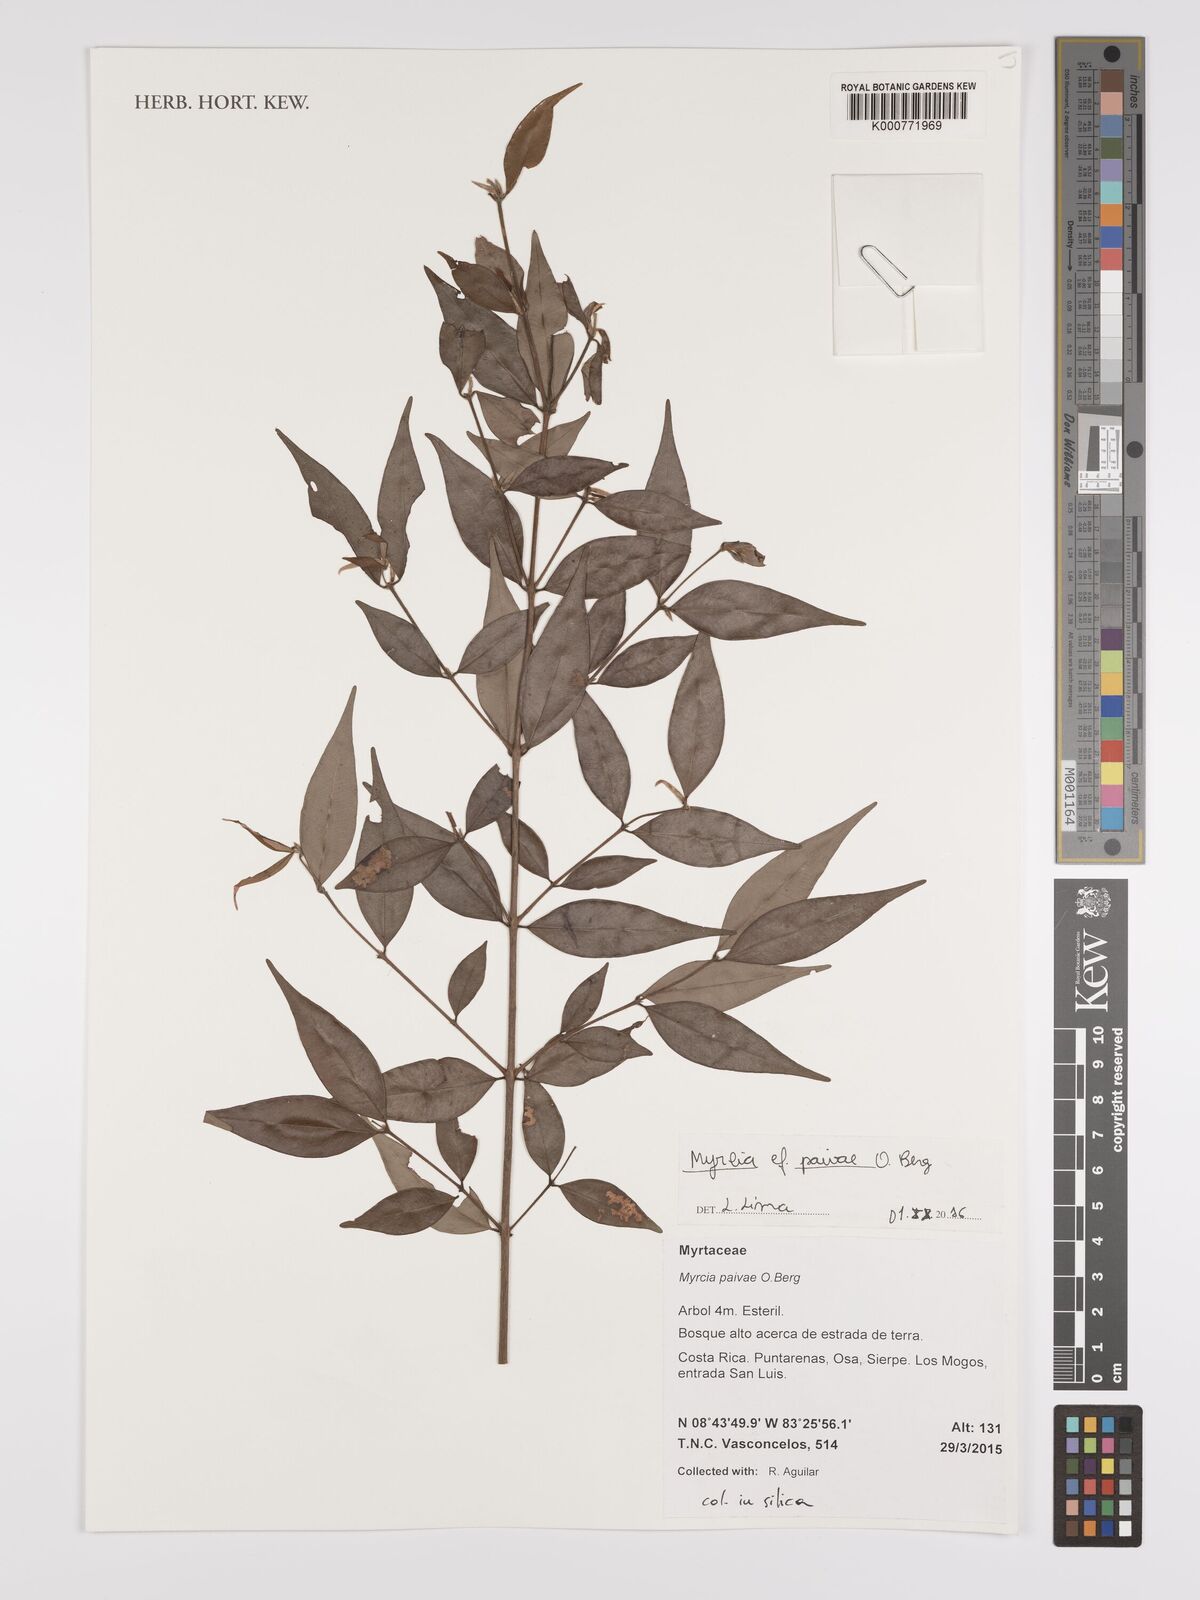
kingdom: Plantae
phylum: Tracheophyta
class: Magnoliopsida
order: Myrtales
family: Myrtaceae
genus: Myrcia
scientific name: Myrcia paivae
